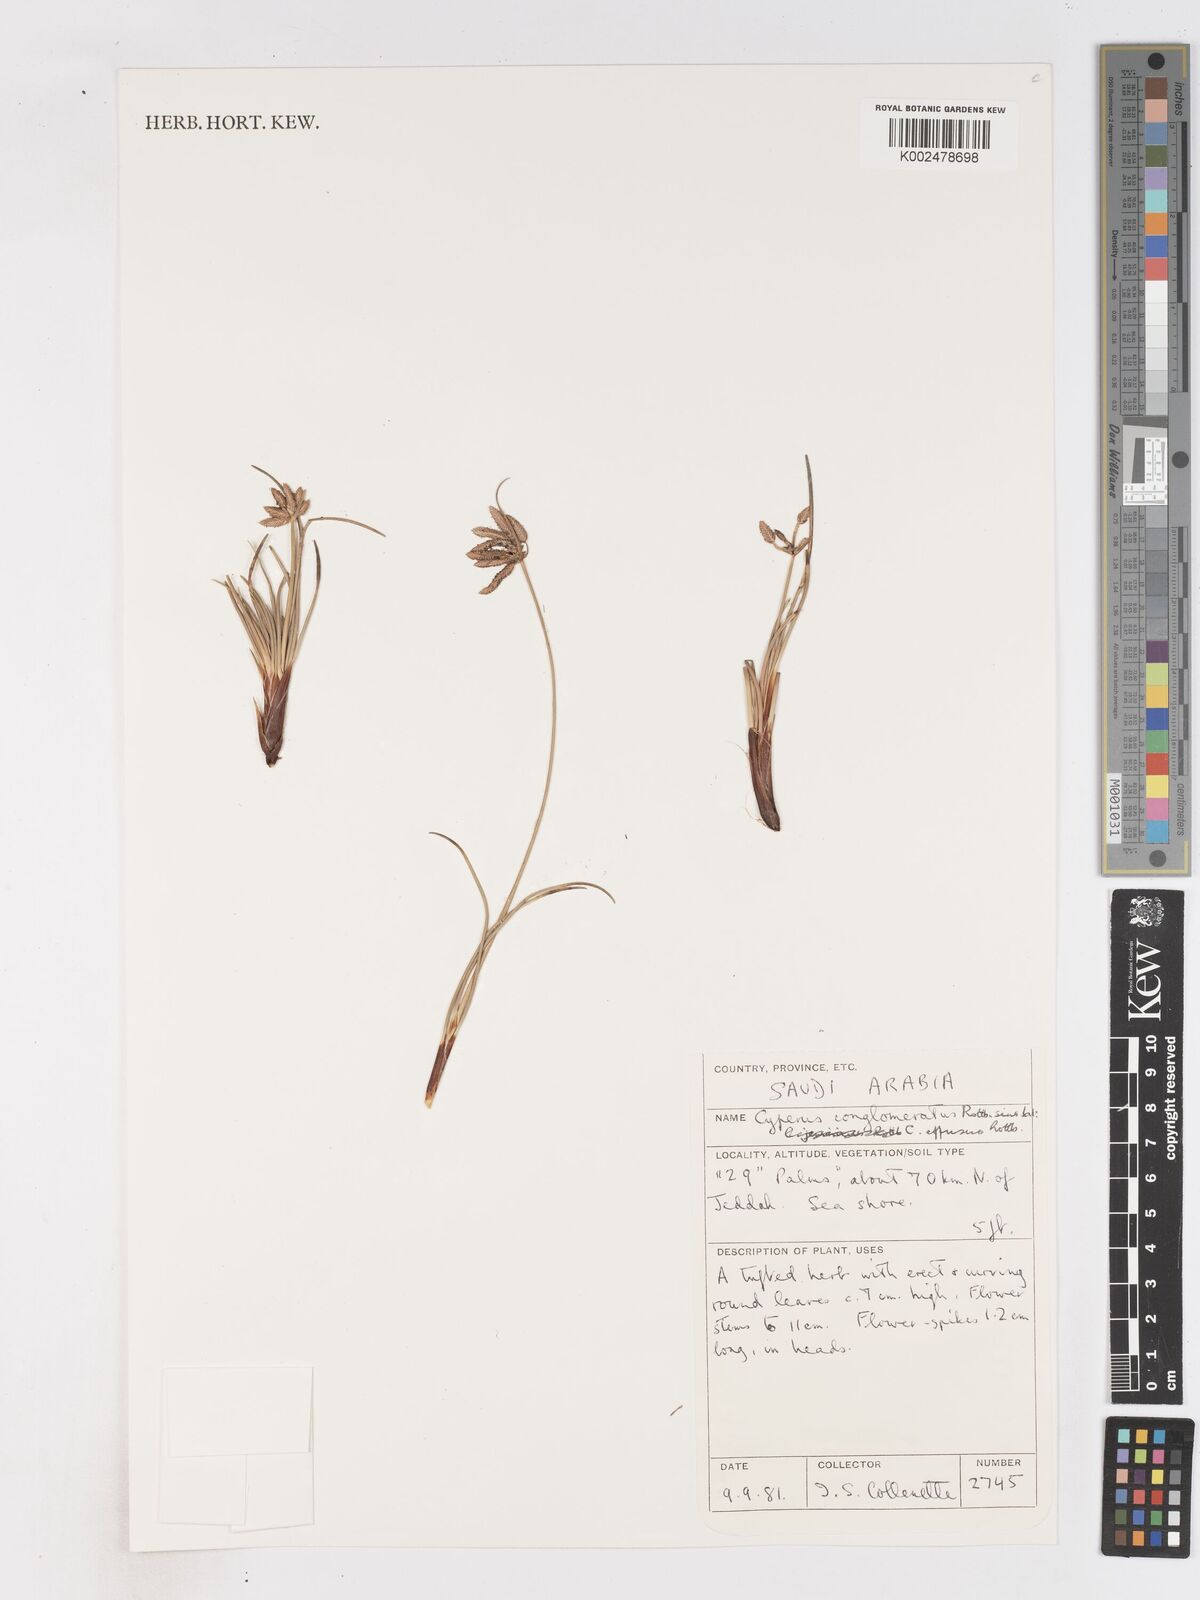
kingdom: Plantae
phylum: Tracheophyta
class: Liliopsida
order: Poales
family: Cyperaceae
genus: Cyperus
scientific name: Cyperus conglomeratus
